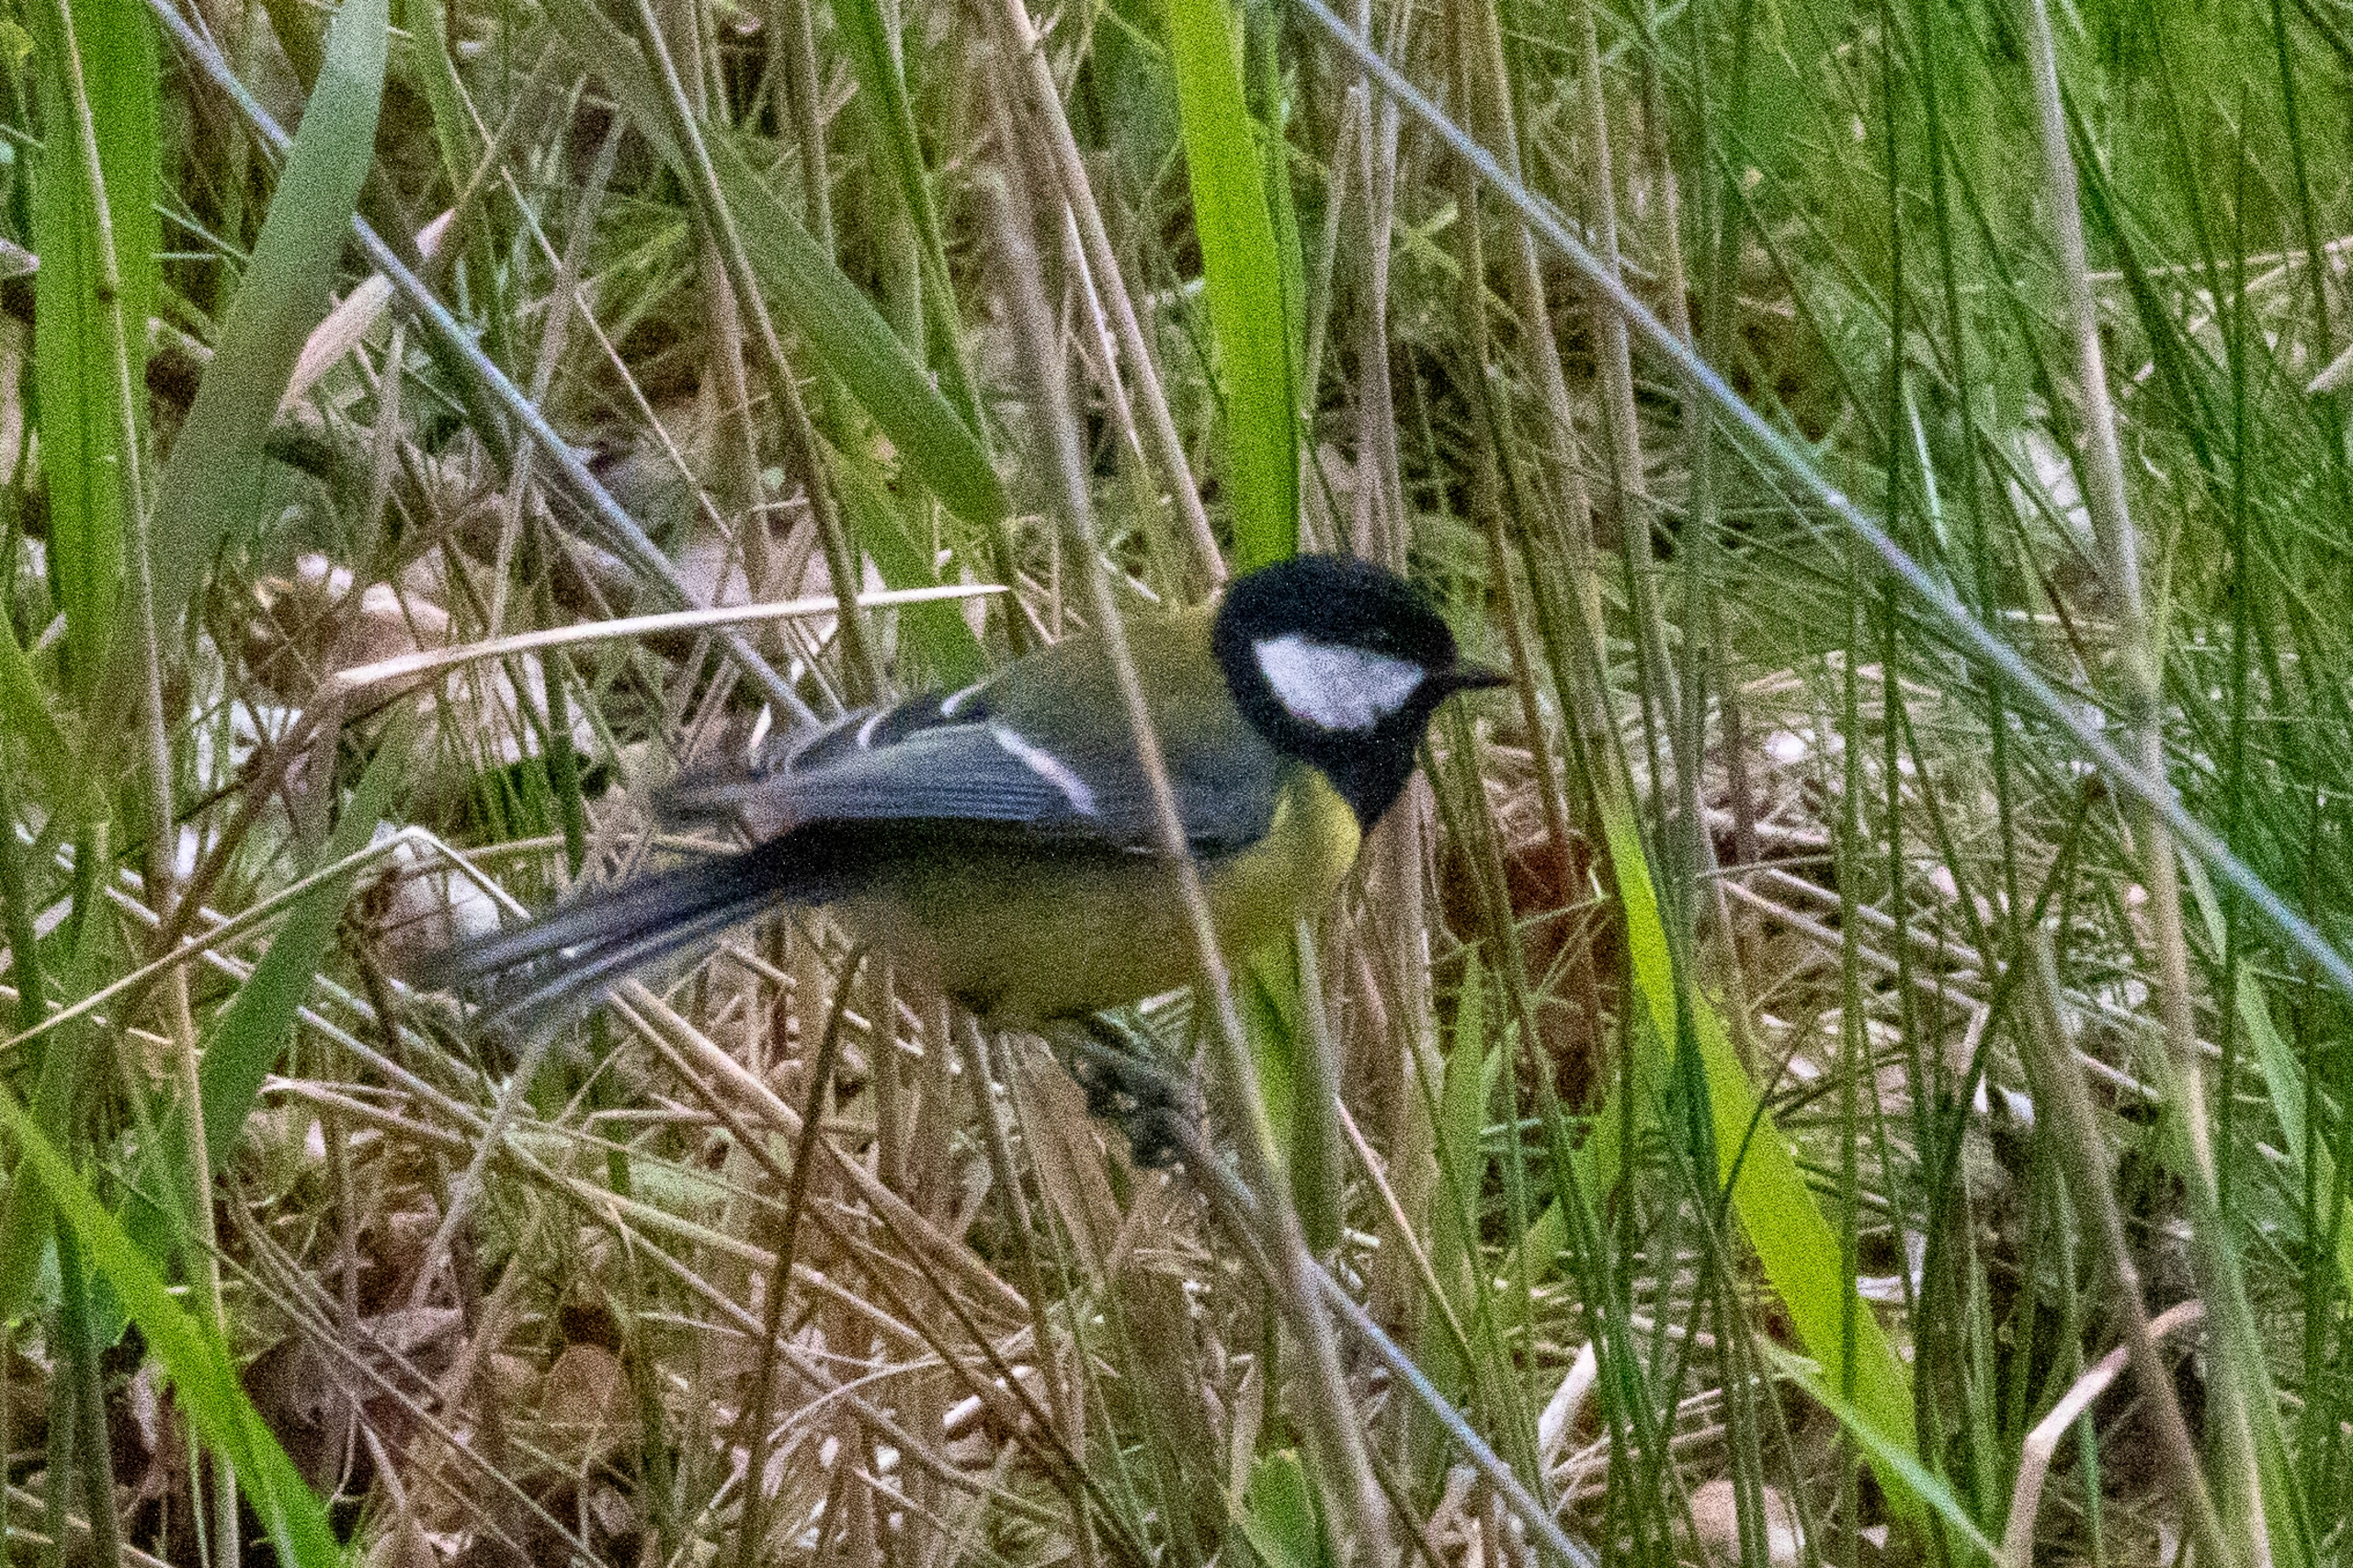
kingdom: Animalia
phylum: Chordata
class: Aves
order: Passeriformes
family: Paridae
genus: Parus
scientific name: Parus major
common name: Musvit
